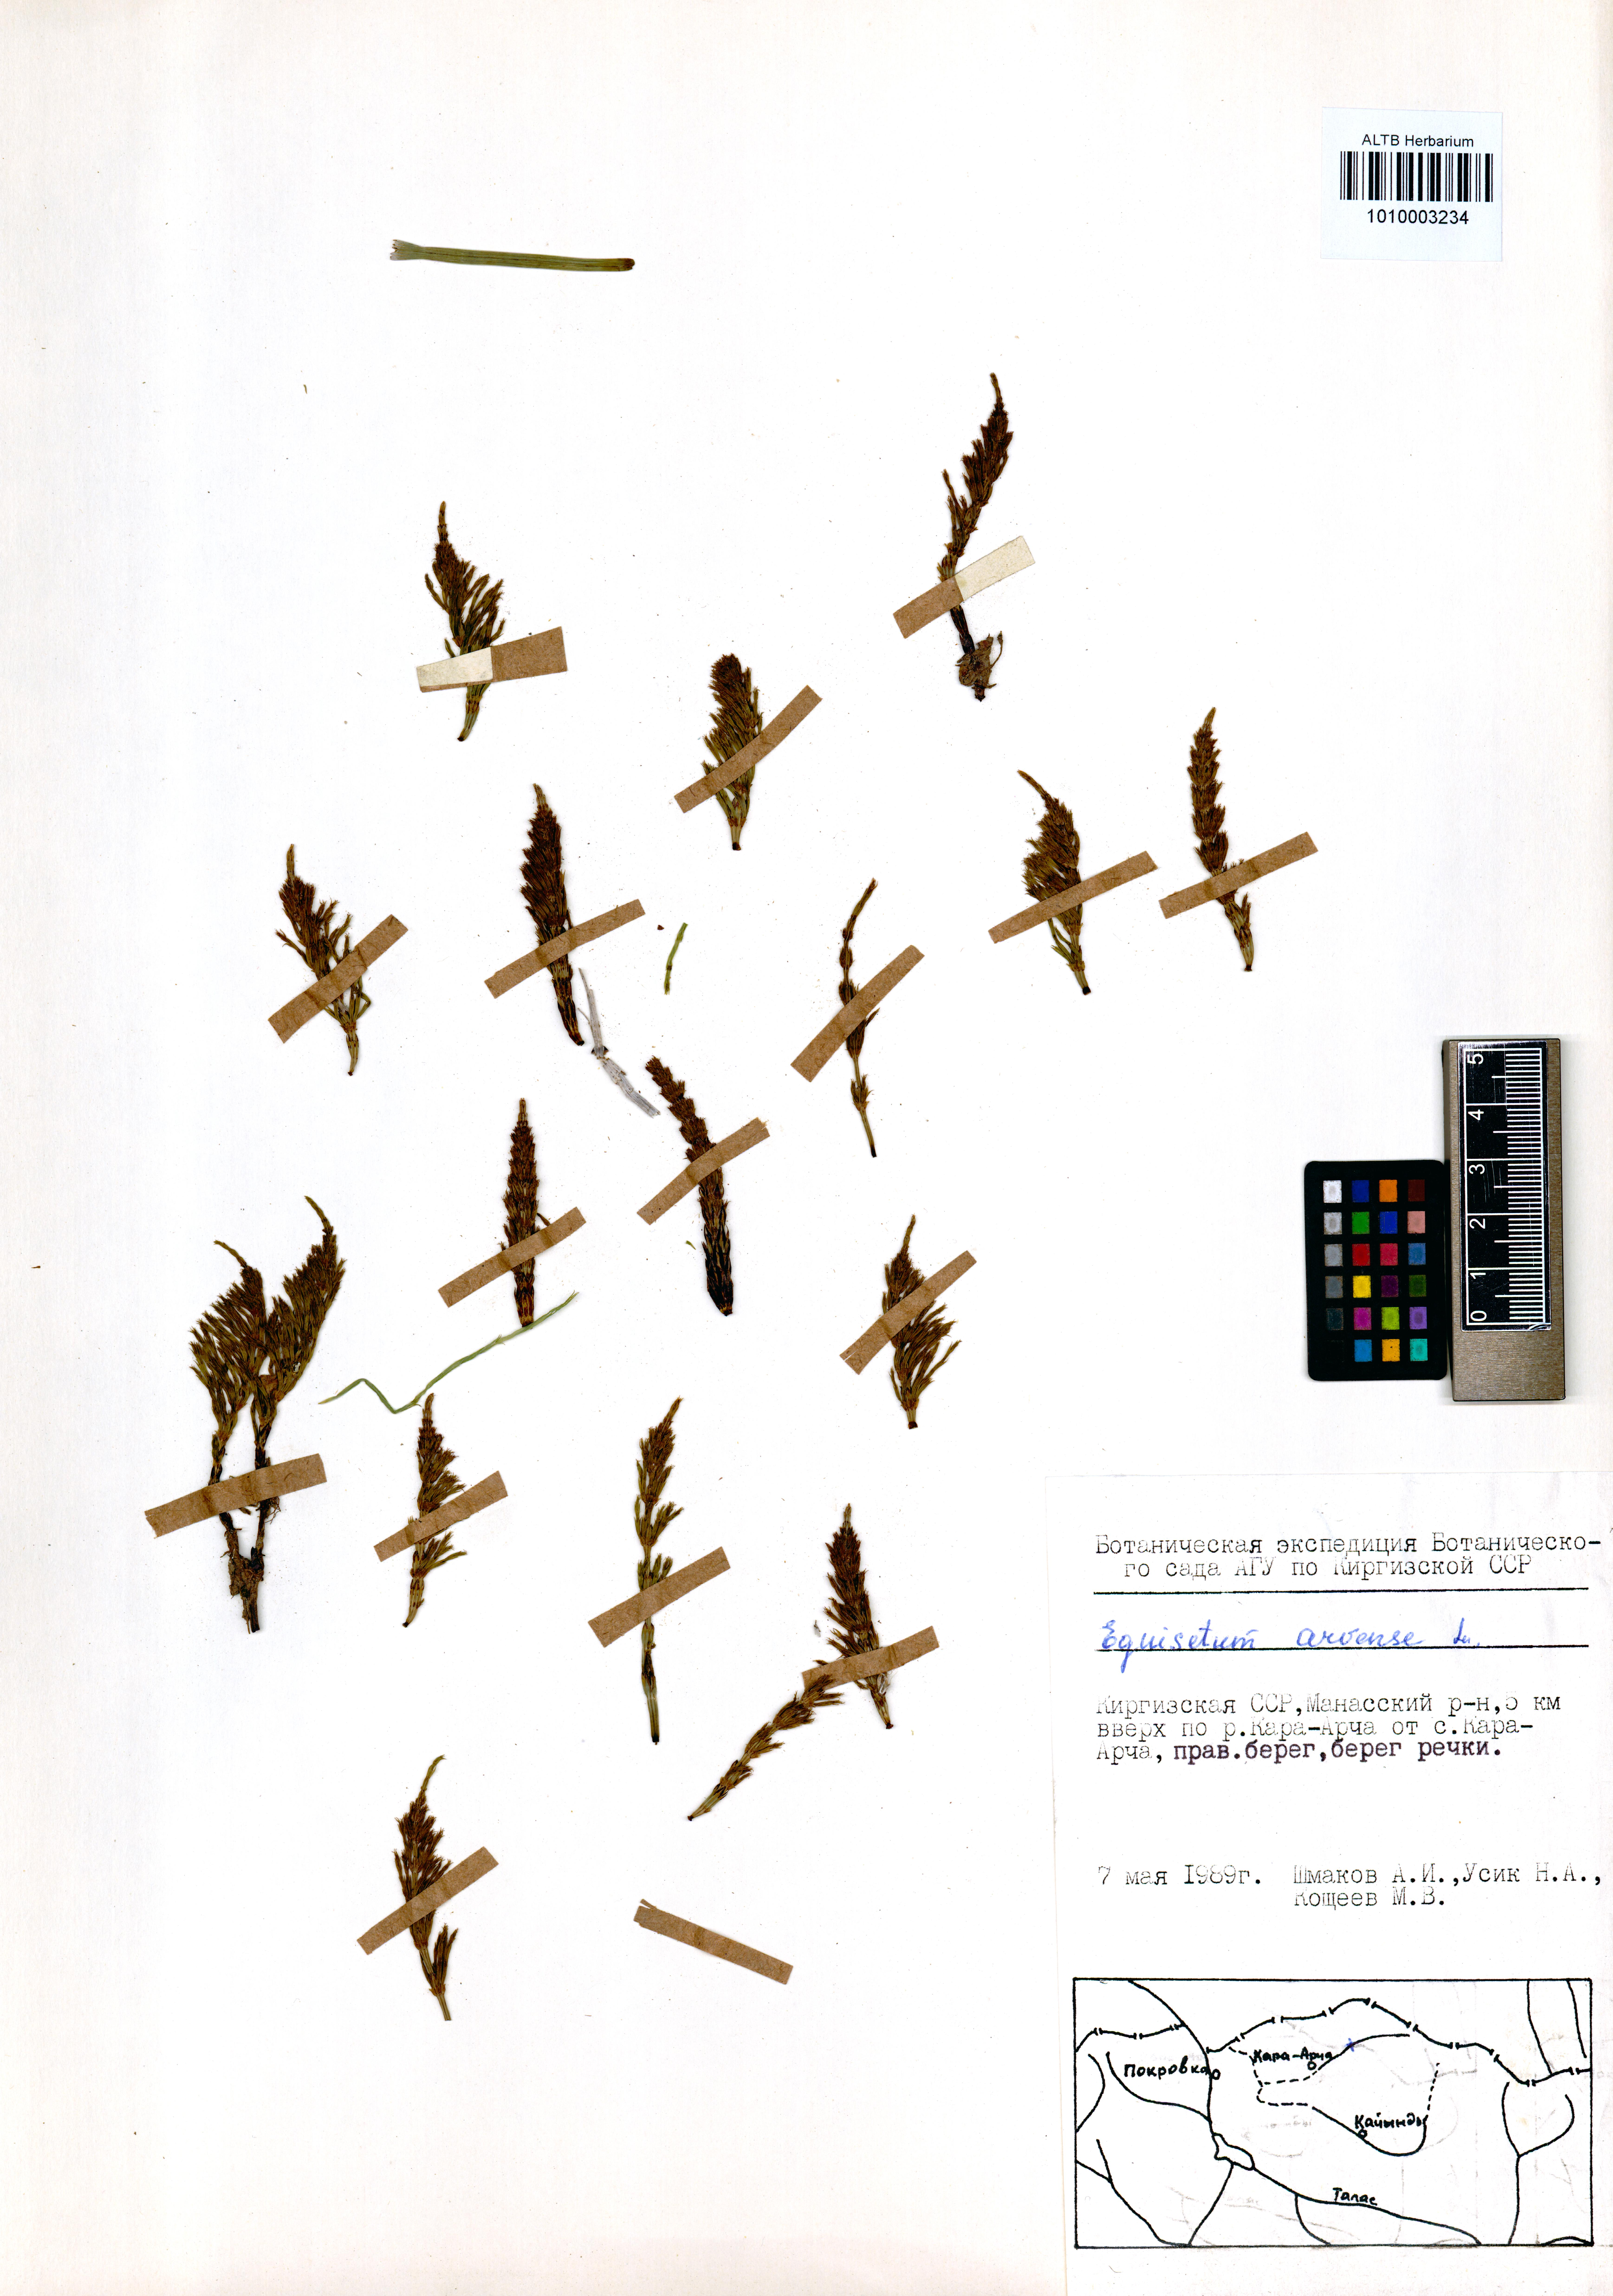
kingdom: Plantae
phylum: Tracheophyta
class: Polypodiopsida
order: Equisetales
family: Equisetaceae
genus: Equisetum
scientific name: Equisetum arvense
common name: Field horsetail
